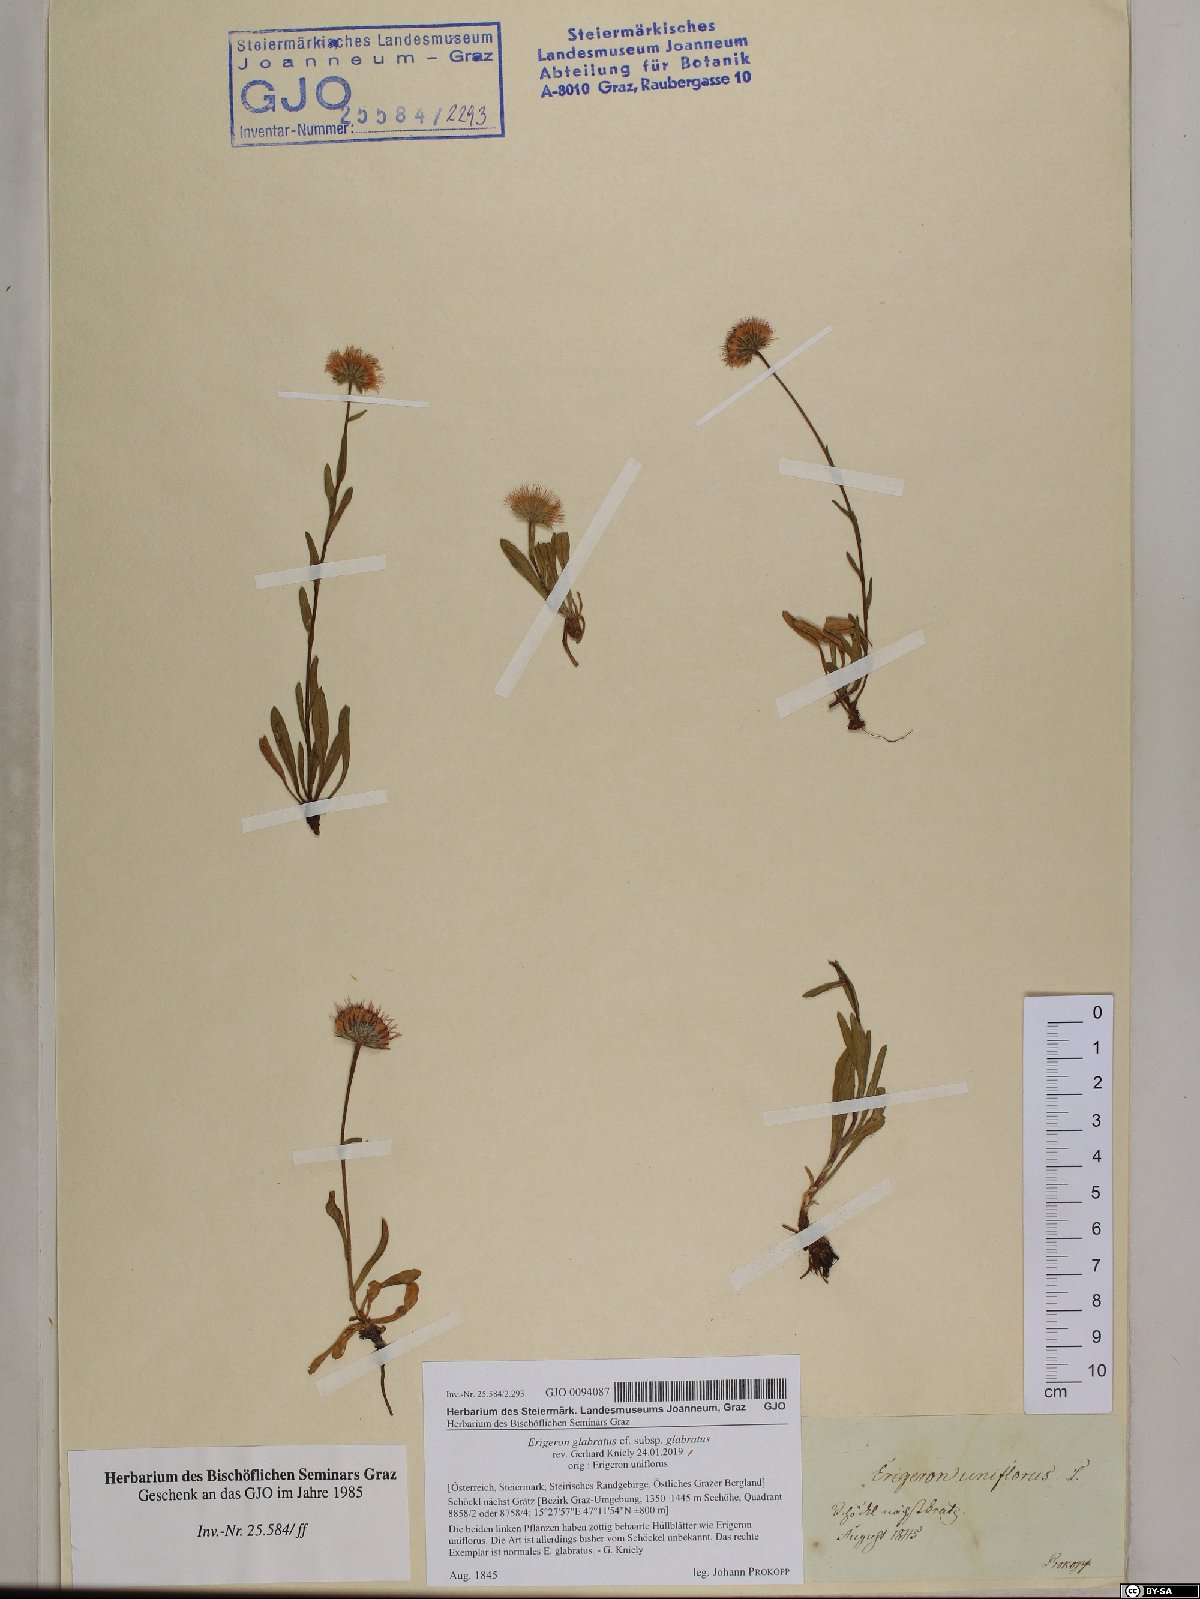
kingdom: Plantae
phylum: Tracheophyta
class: Magnoliopsida
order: Asterales
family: Asteraceae
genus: Erigeron
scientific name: Erigeron glabratus
